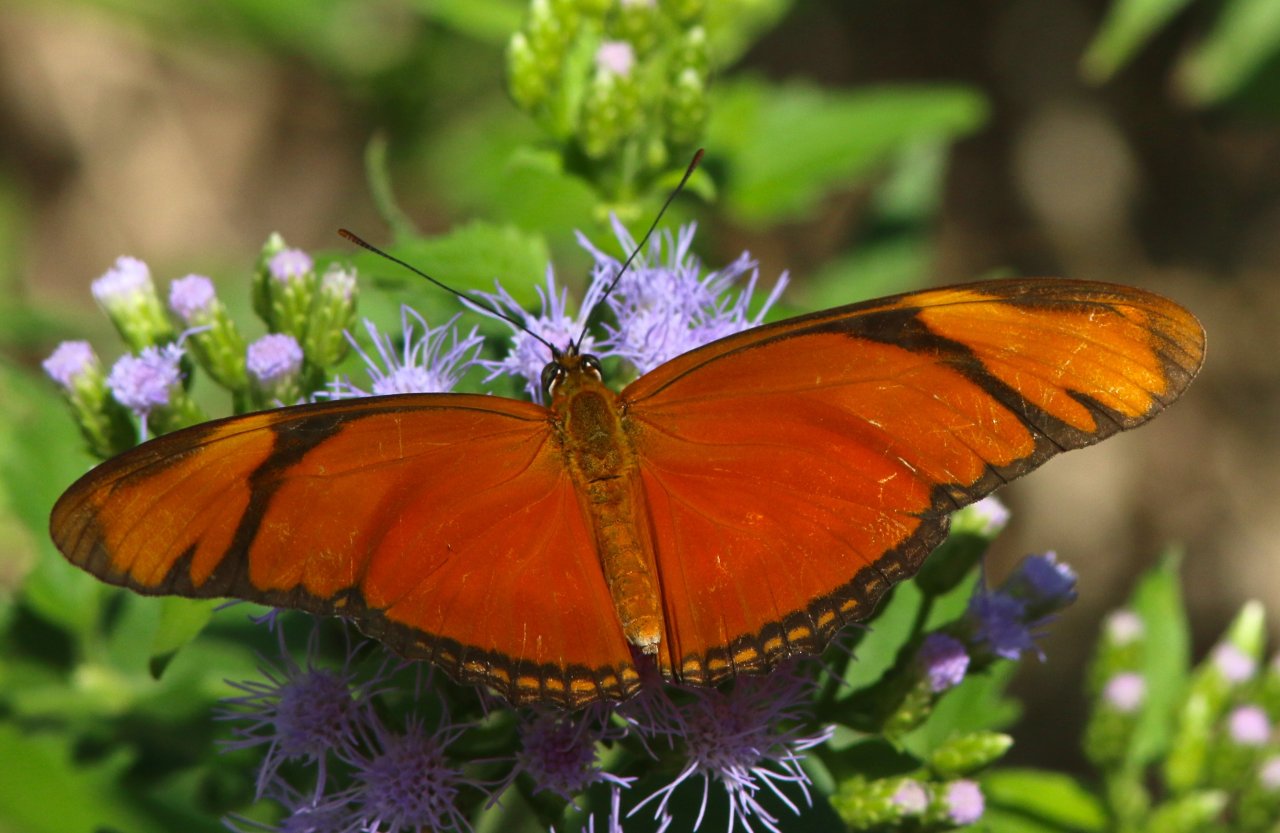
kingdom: Animalia
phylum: Arthropoda
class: Insecta
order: Lepidoptera
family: Nymphalidae
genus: Dryas
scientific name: Dryas iulia
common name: Julia
